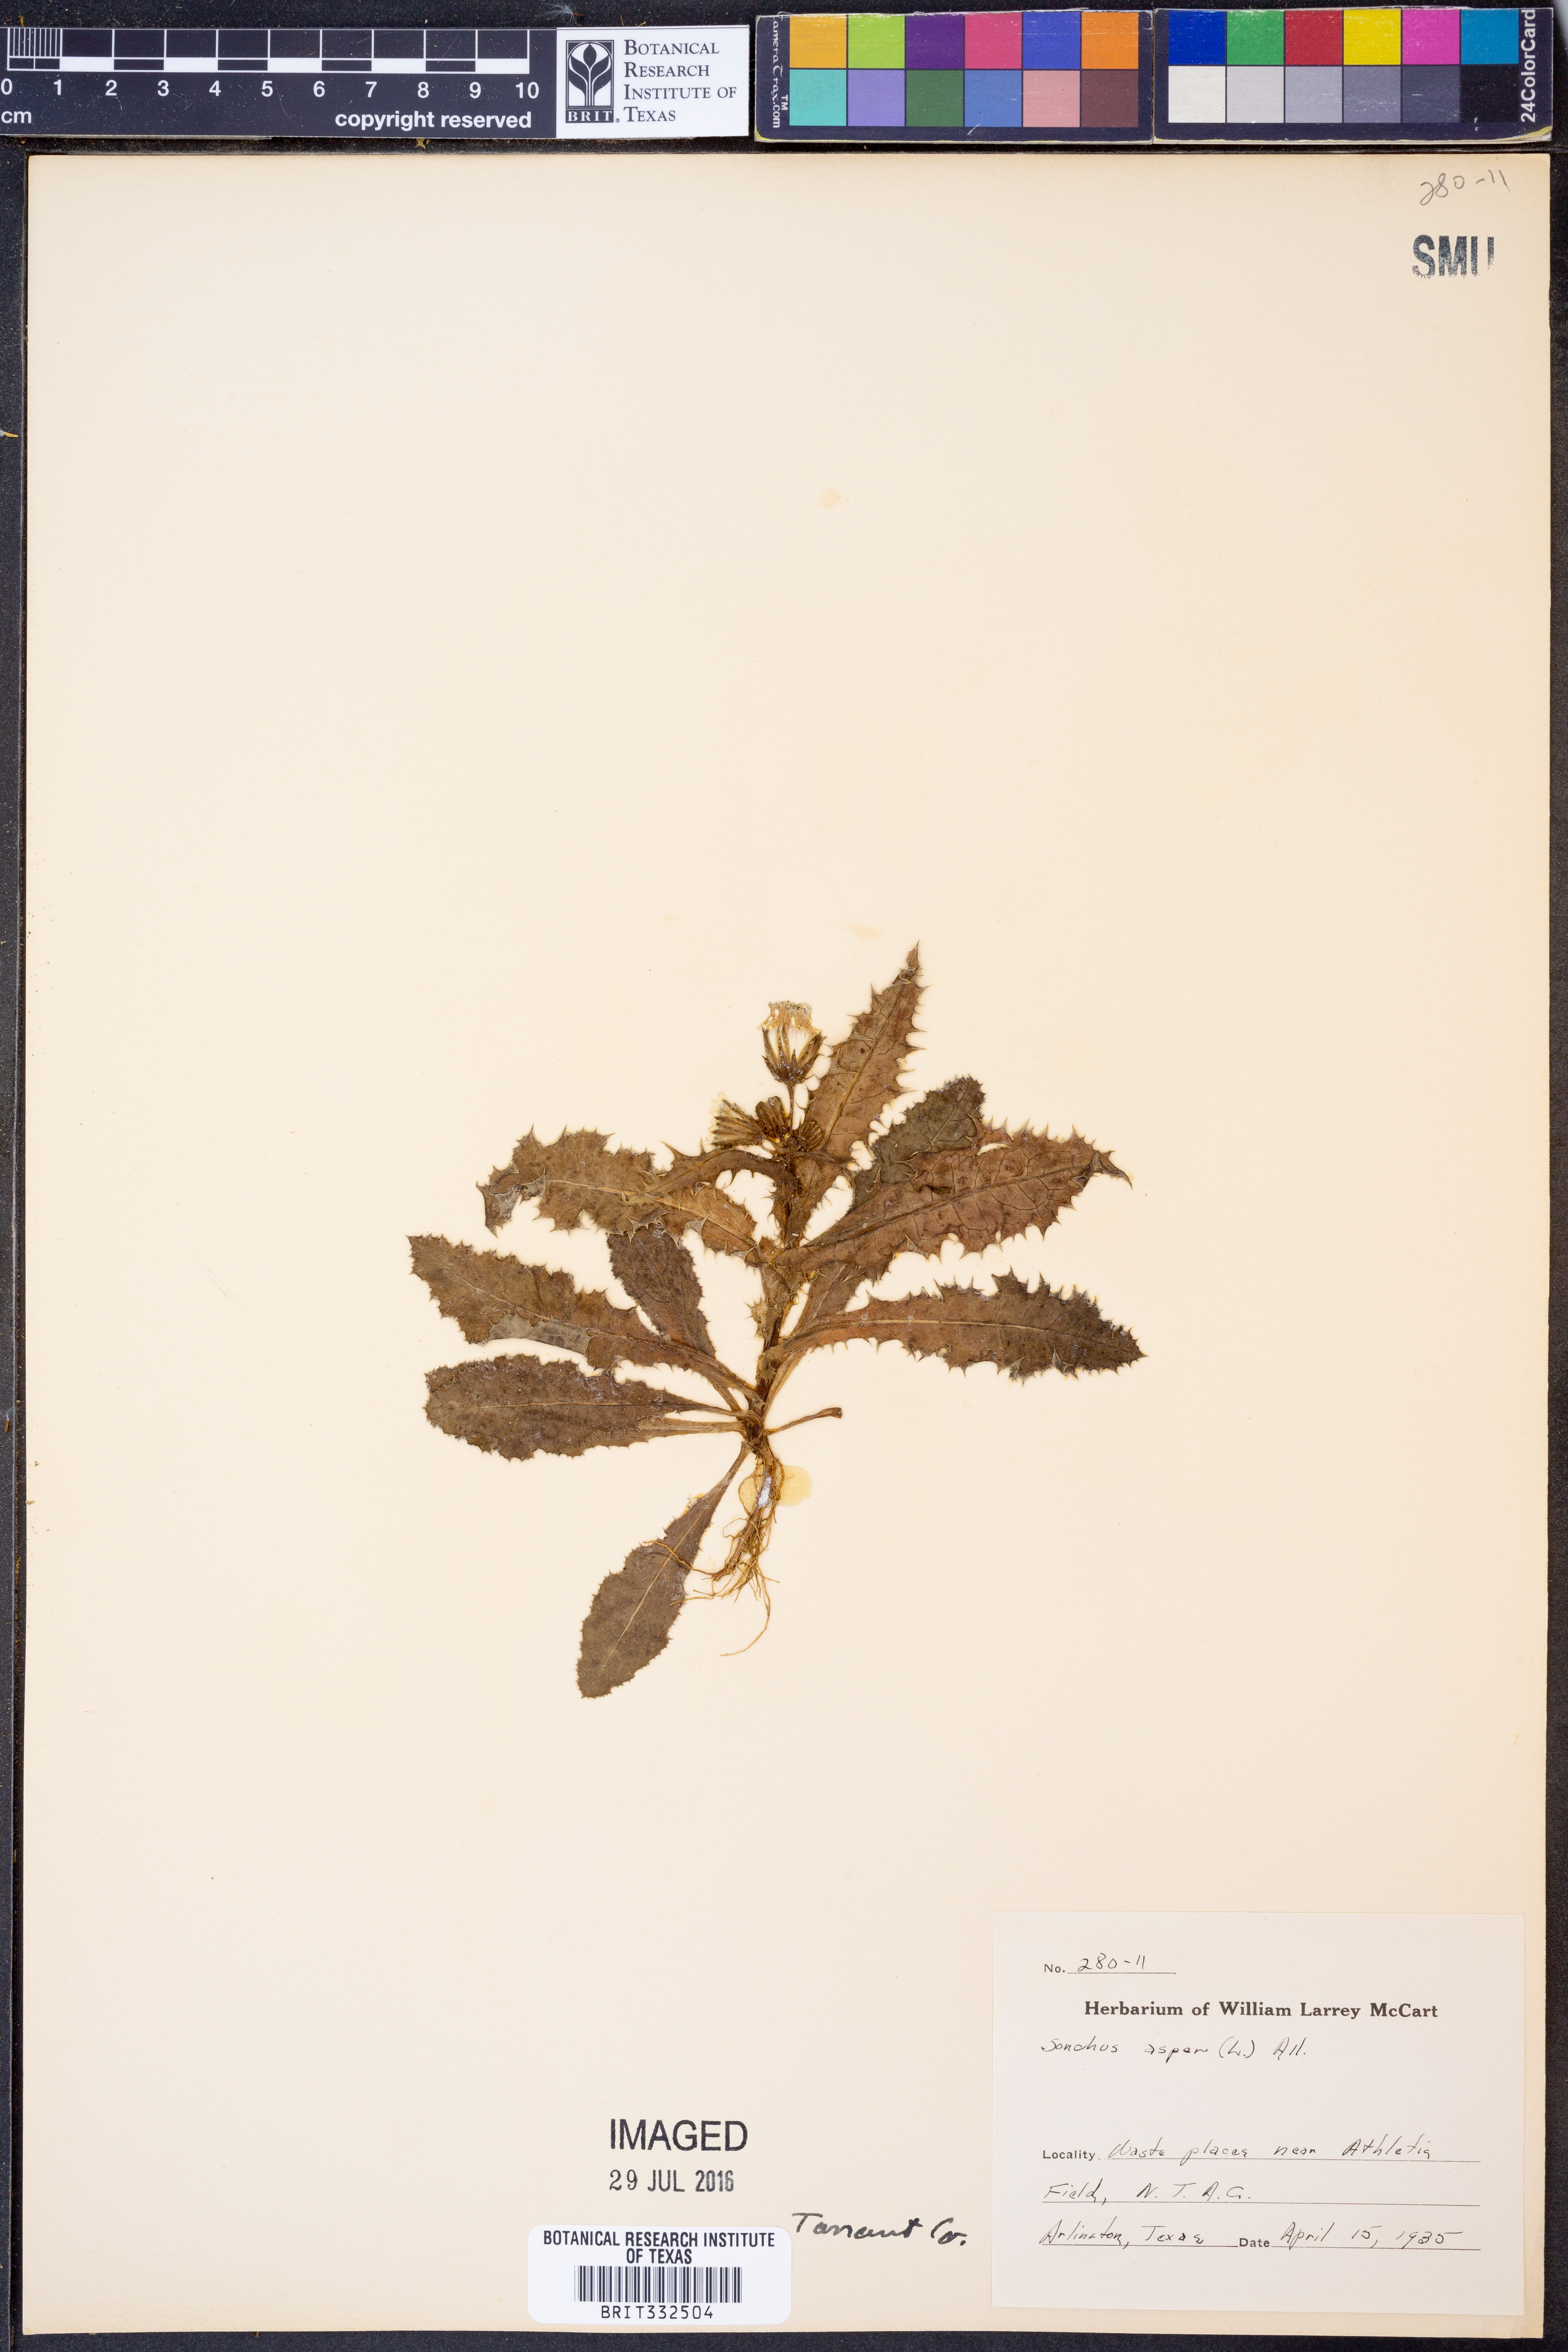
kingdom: Plantae
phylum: Tracheophyta
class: Magnoliopsida
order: Asterales
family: Asteraceae
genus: Sonchus
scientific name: Sonchus asper
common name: Prickly sow-thistle
